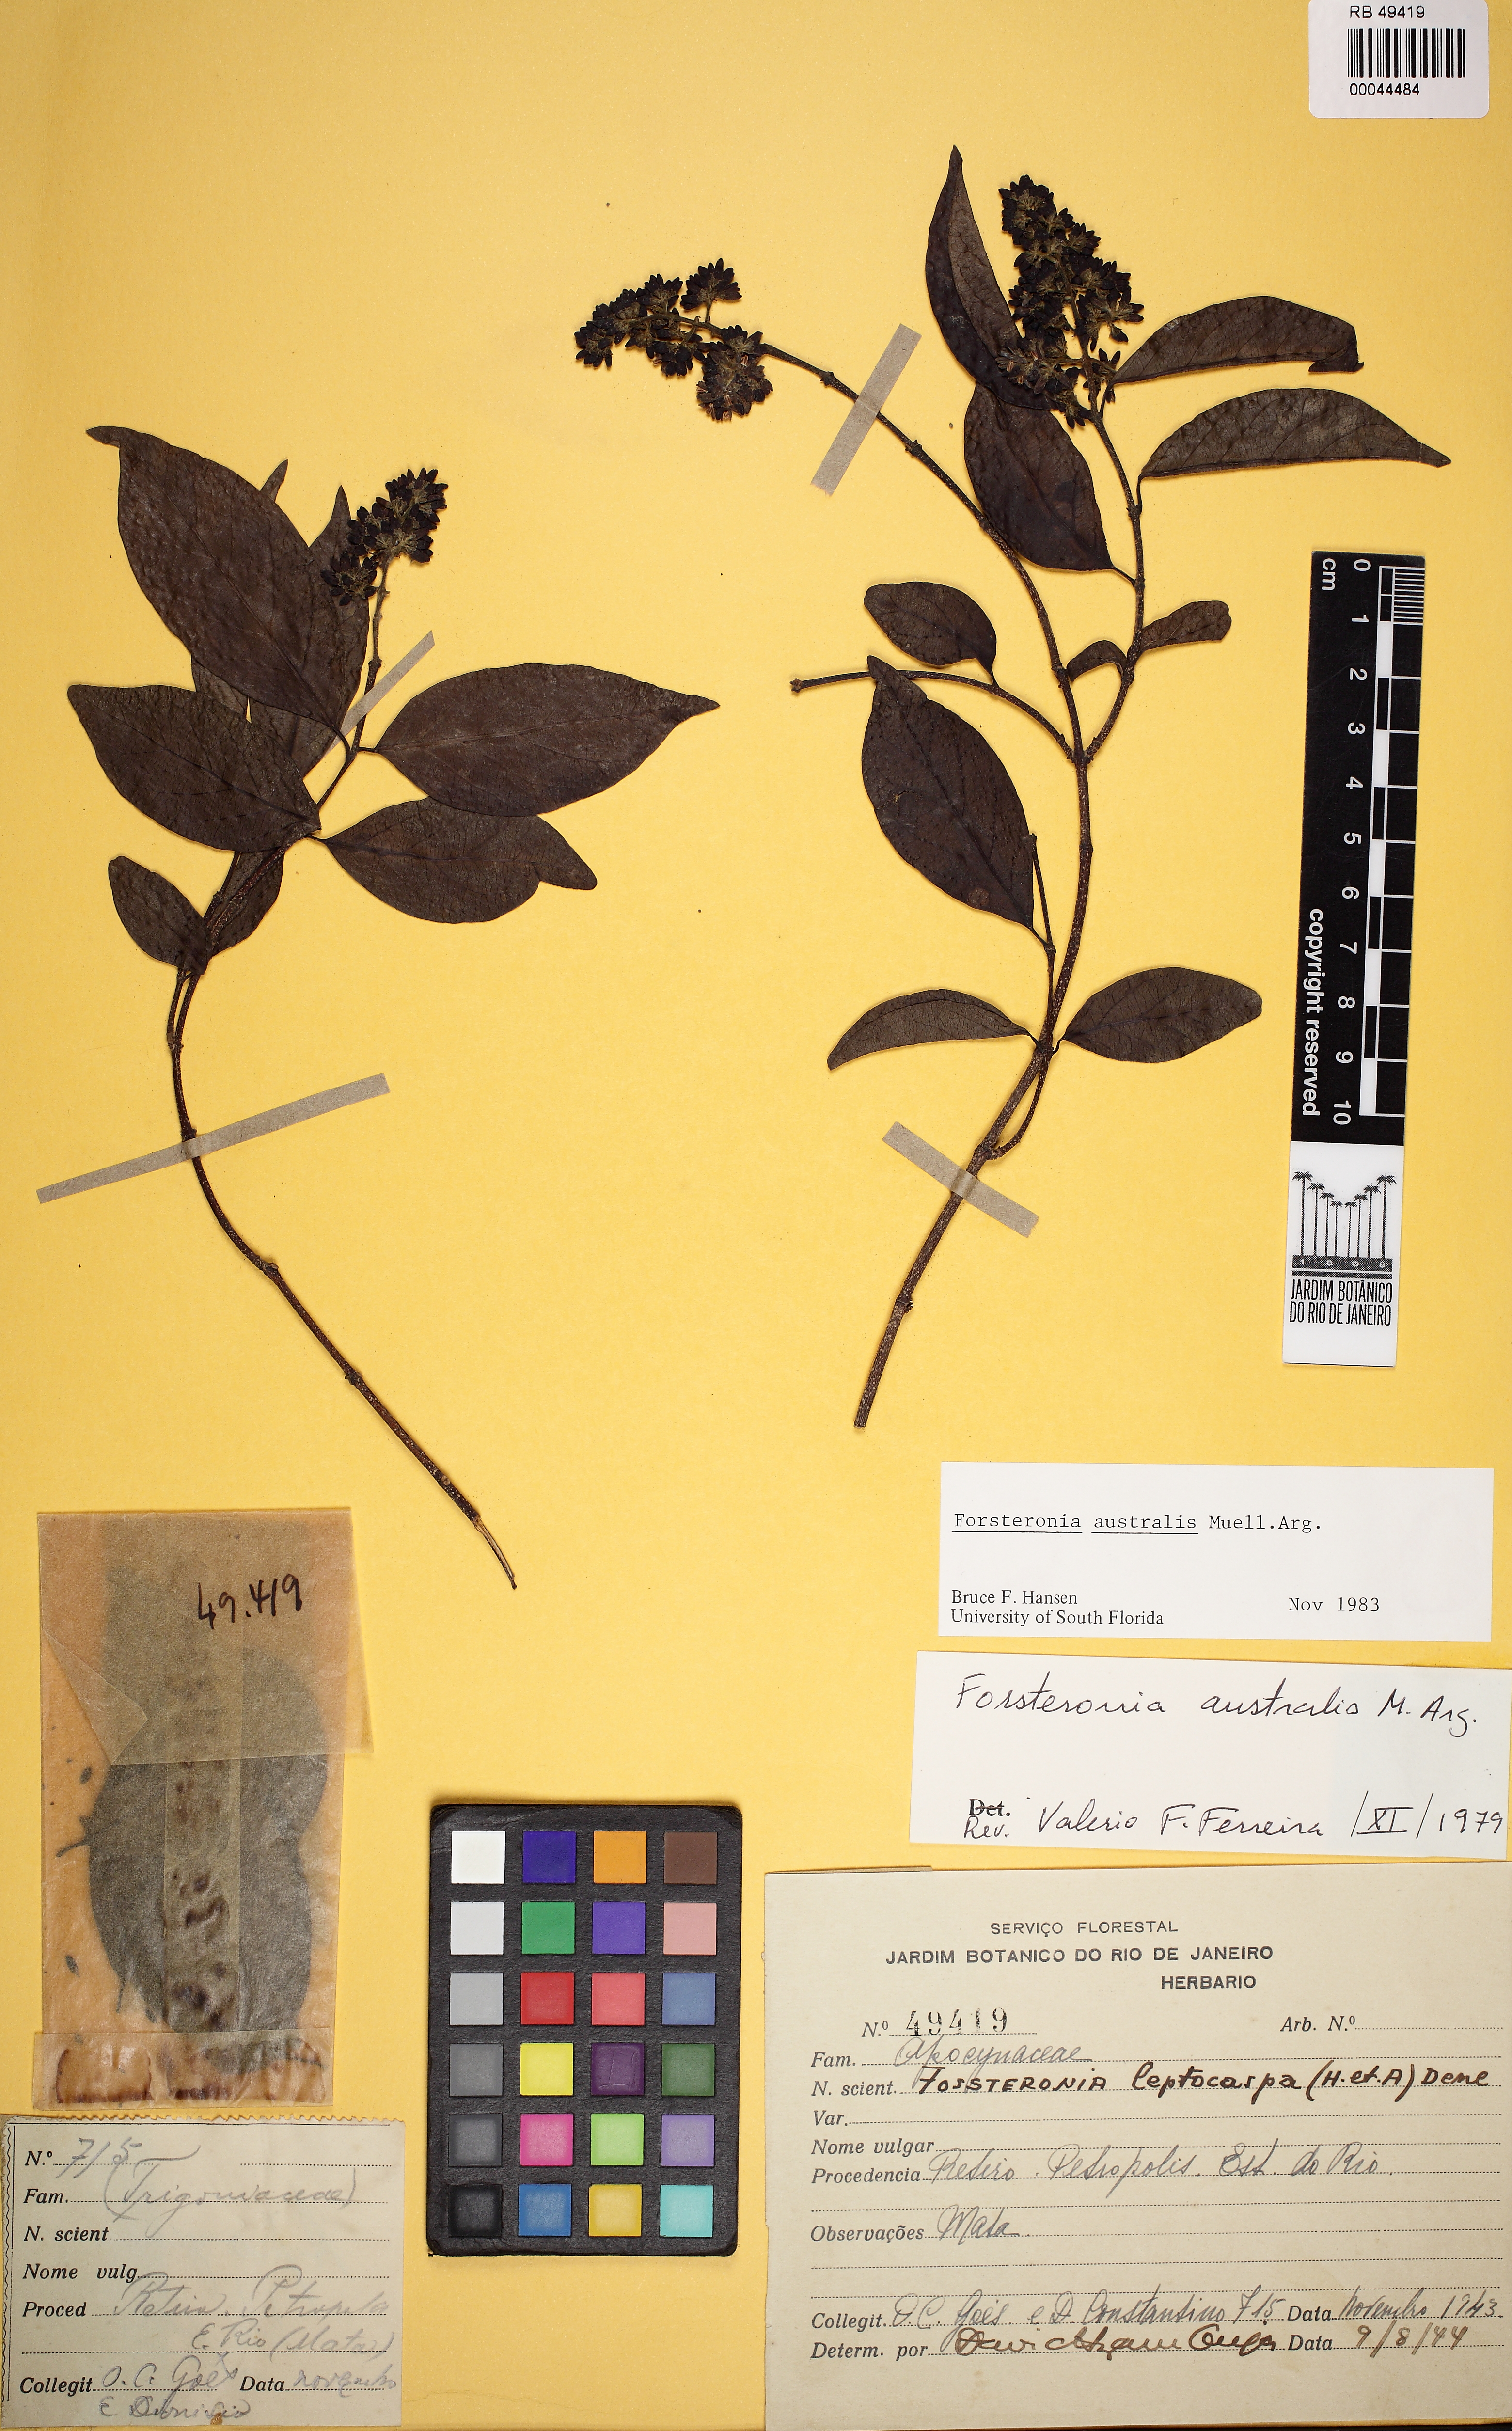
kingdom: Plantae
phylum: Tracheophyta
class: Magnoliopsida
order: Gentianales
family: Apocynaceae
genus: Forsteronia
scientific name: Forsteronia australis
